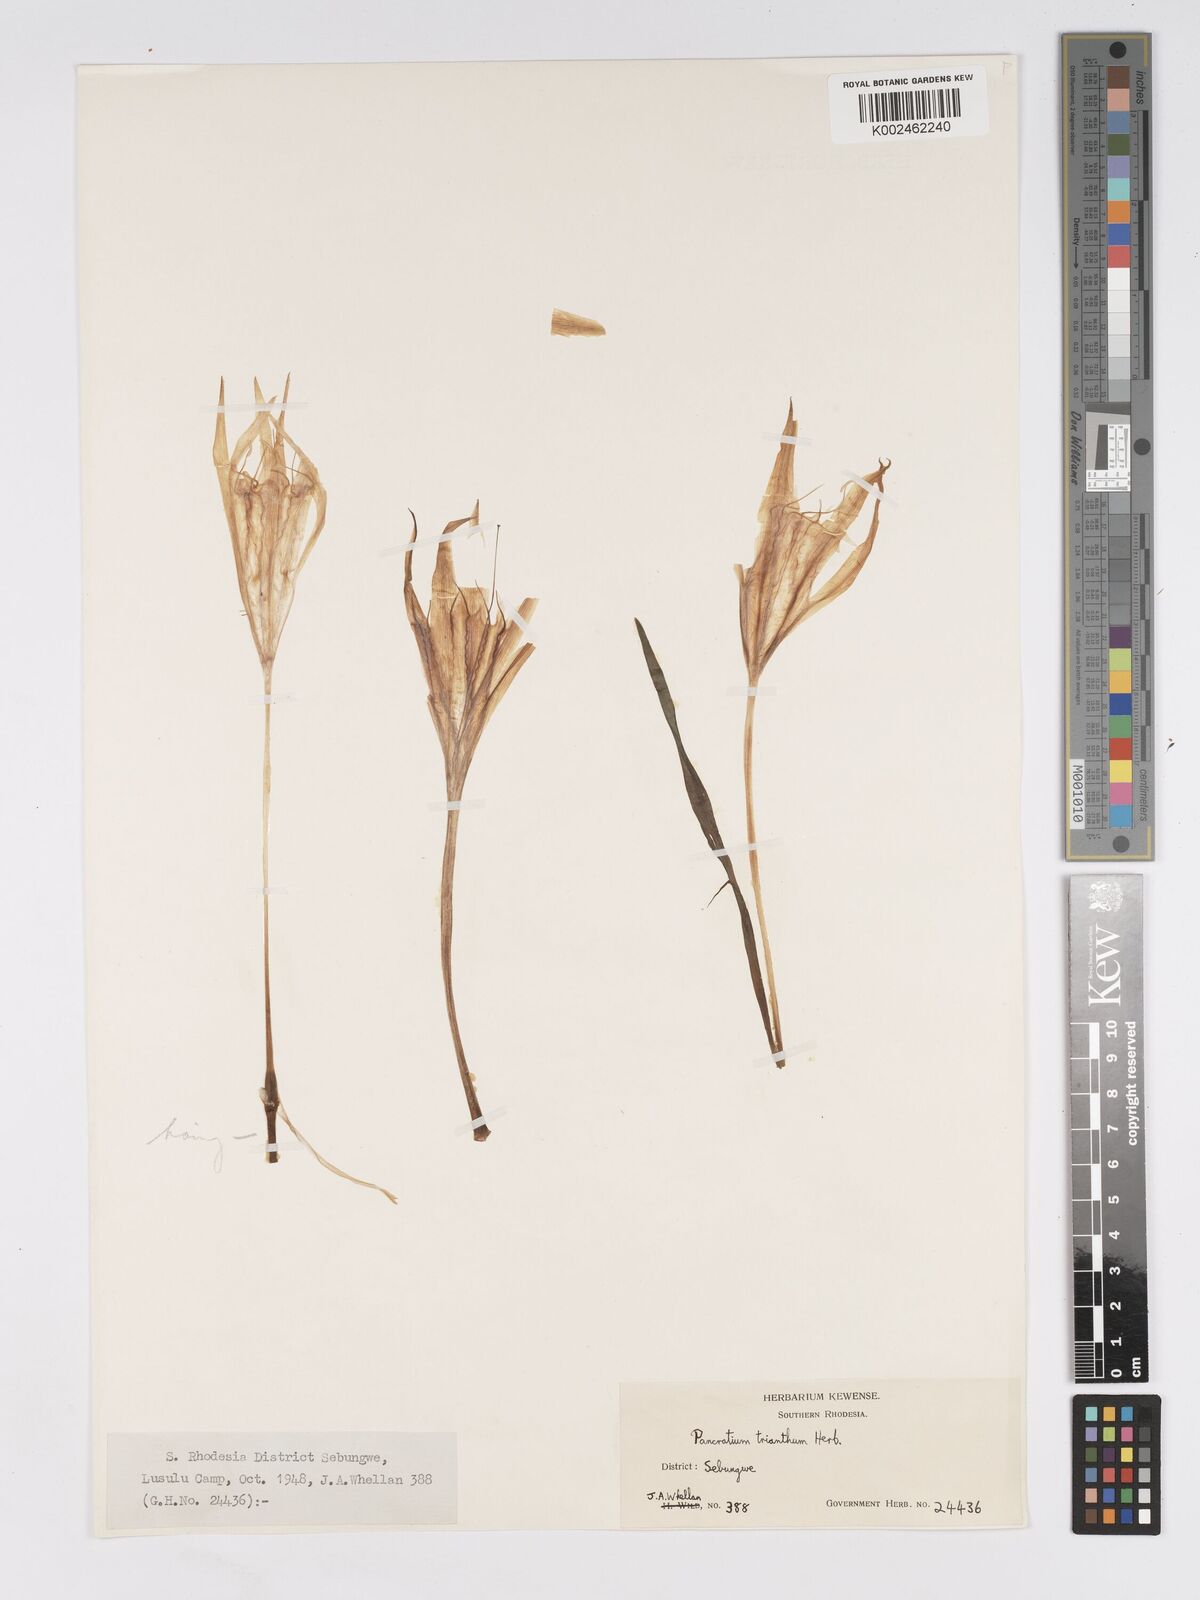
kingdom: Plantae
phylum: Tracheophyta
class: Liliopsida
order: Asparagales
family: Amaryllidaceae
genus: Pancratium
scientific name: Pancratium trianthum
